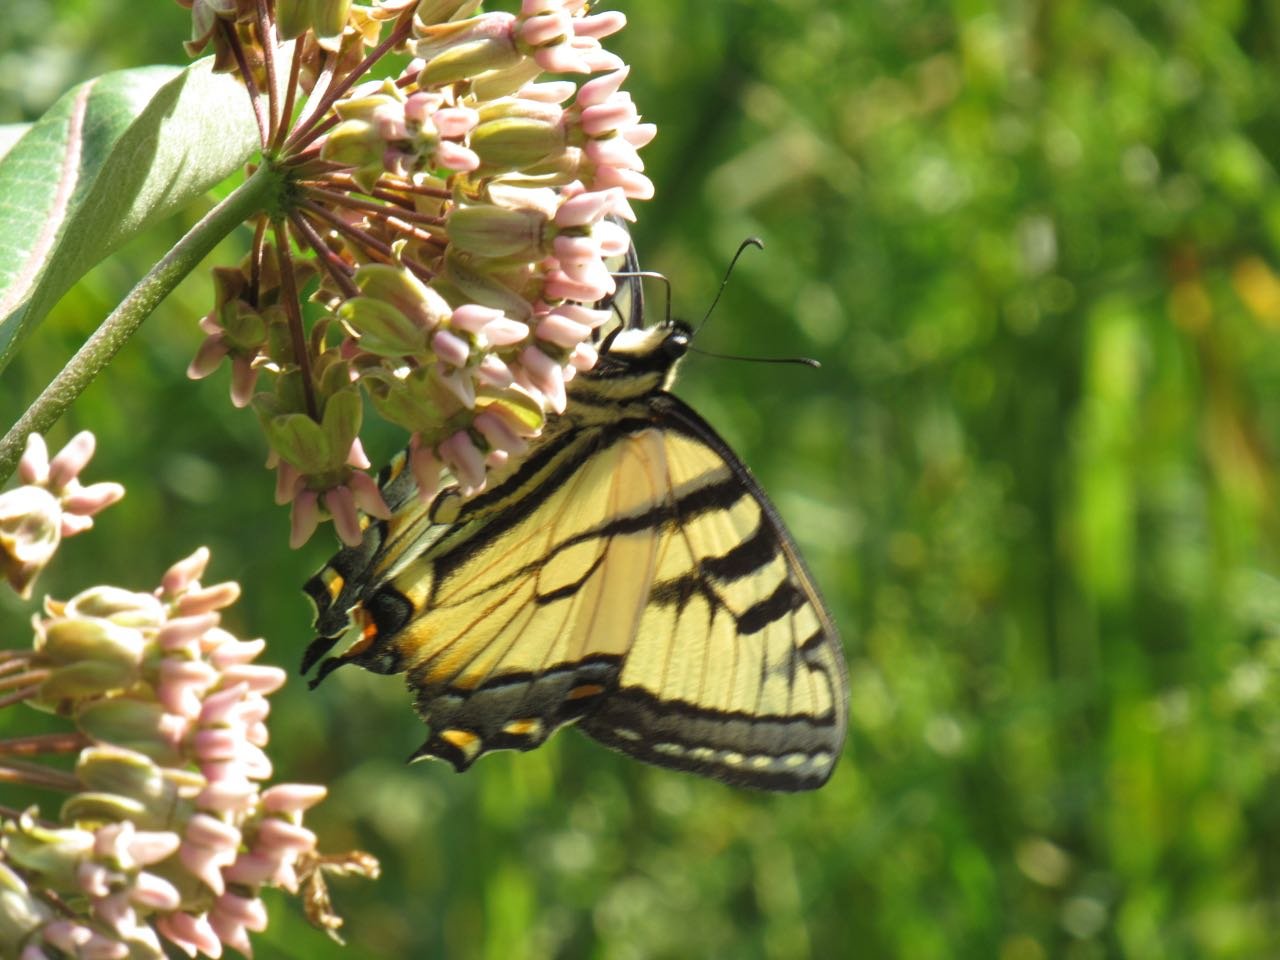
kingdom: Animalia
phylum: Arthropoda
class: Insecta
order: Lepidoptera
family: Papilionidae
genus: Pterourus
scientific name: Pterourus canadensis
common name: Canadian Tiger Swallowtail
